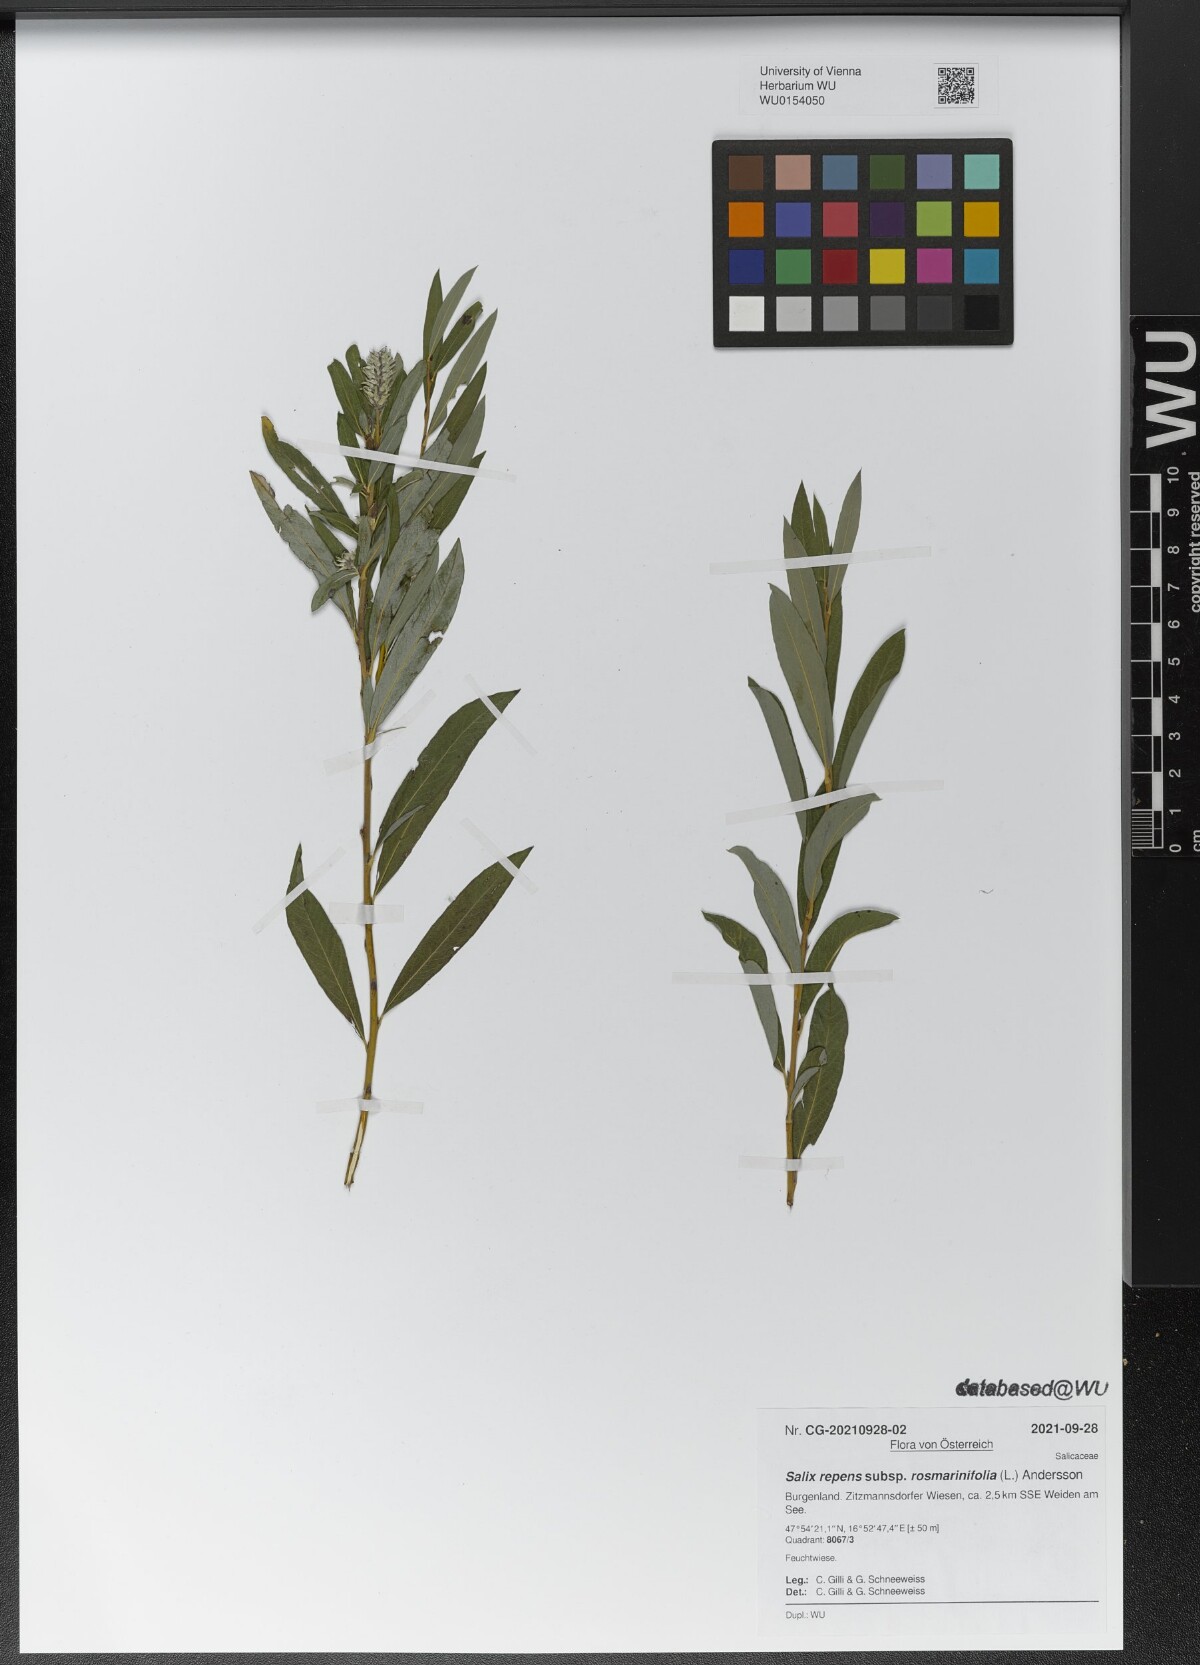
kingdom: Plantae
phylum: Tracheophyta
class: Magnoliopsida
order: Malpighiales
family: Salicaceae
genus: Salix
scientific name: Salix repens
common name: Creeping willow
